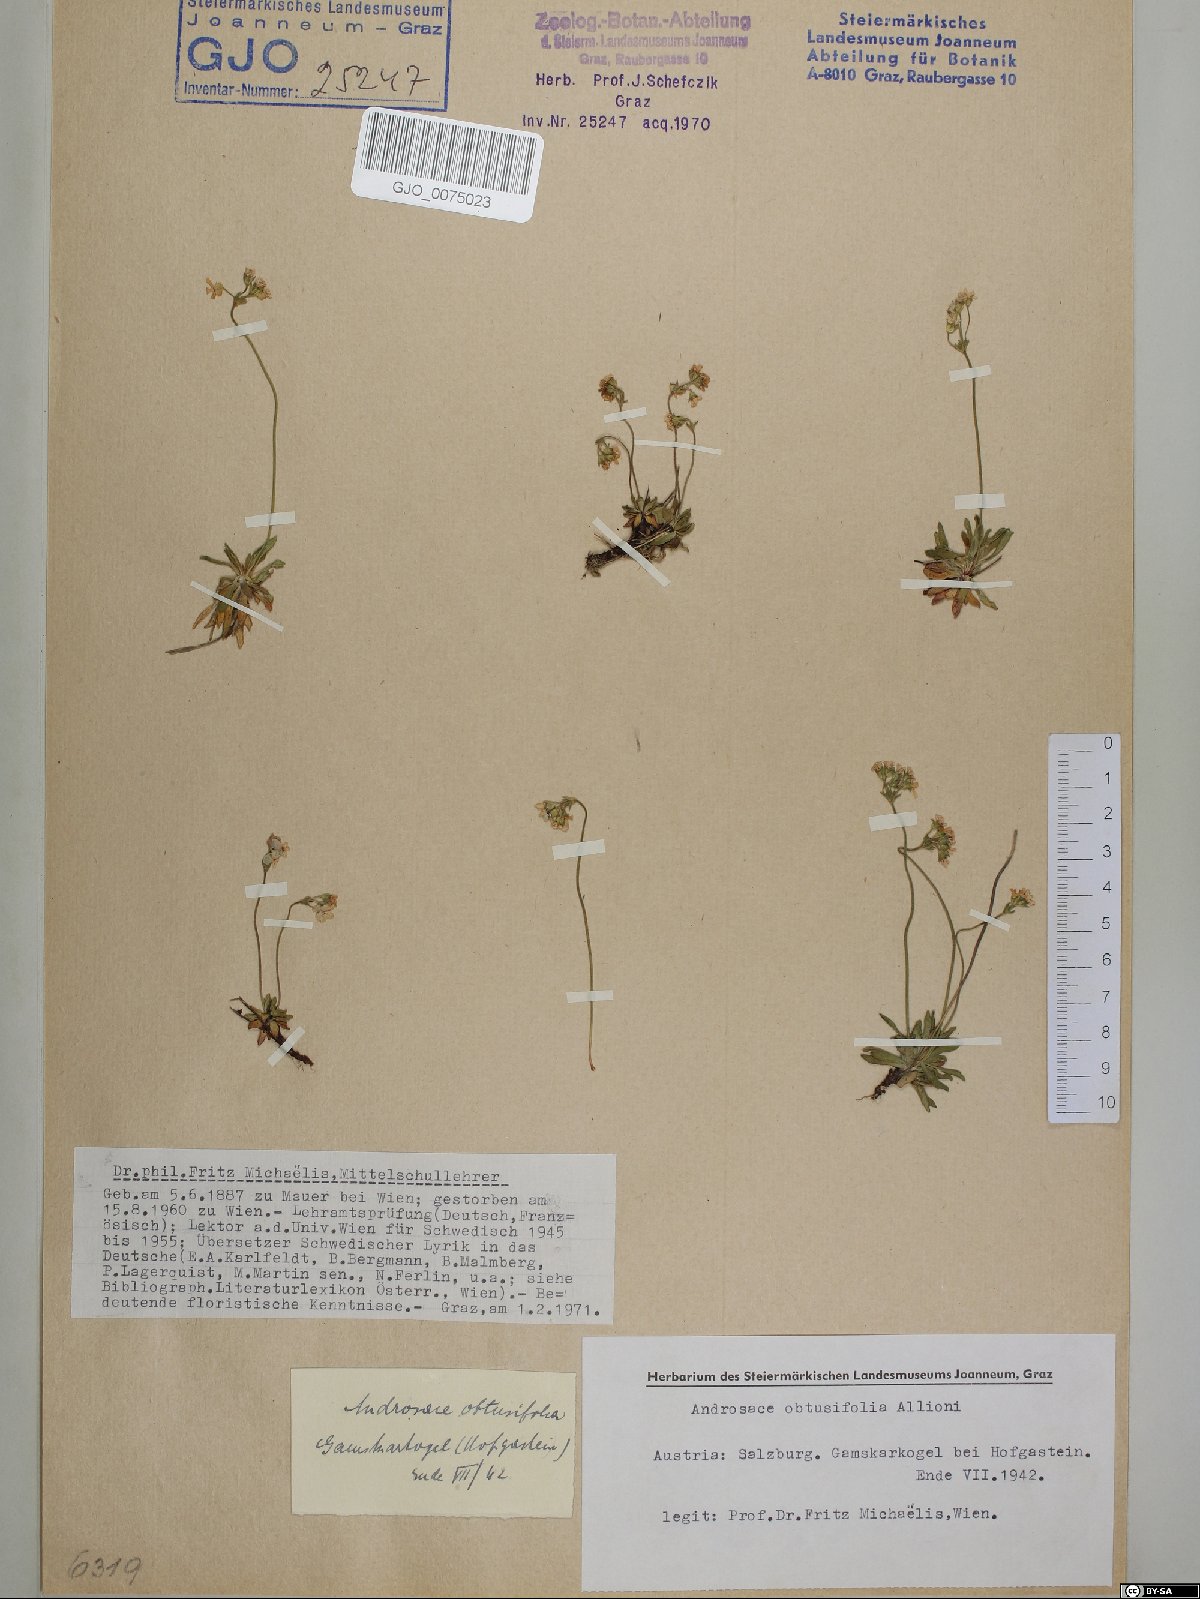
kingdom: Plantae
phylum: Tracheophyta
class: Magnoliopsida
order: Ericales
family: Primulaceae
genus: Androsace
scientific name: Androsace obtusifolia
